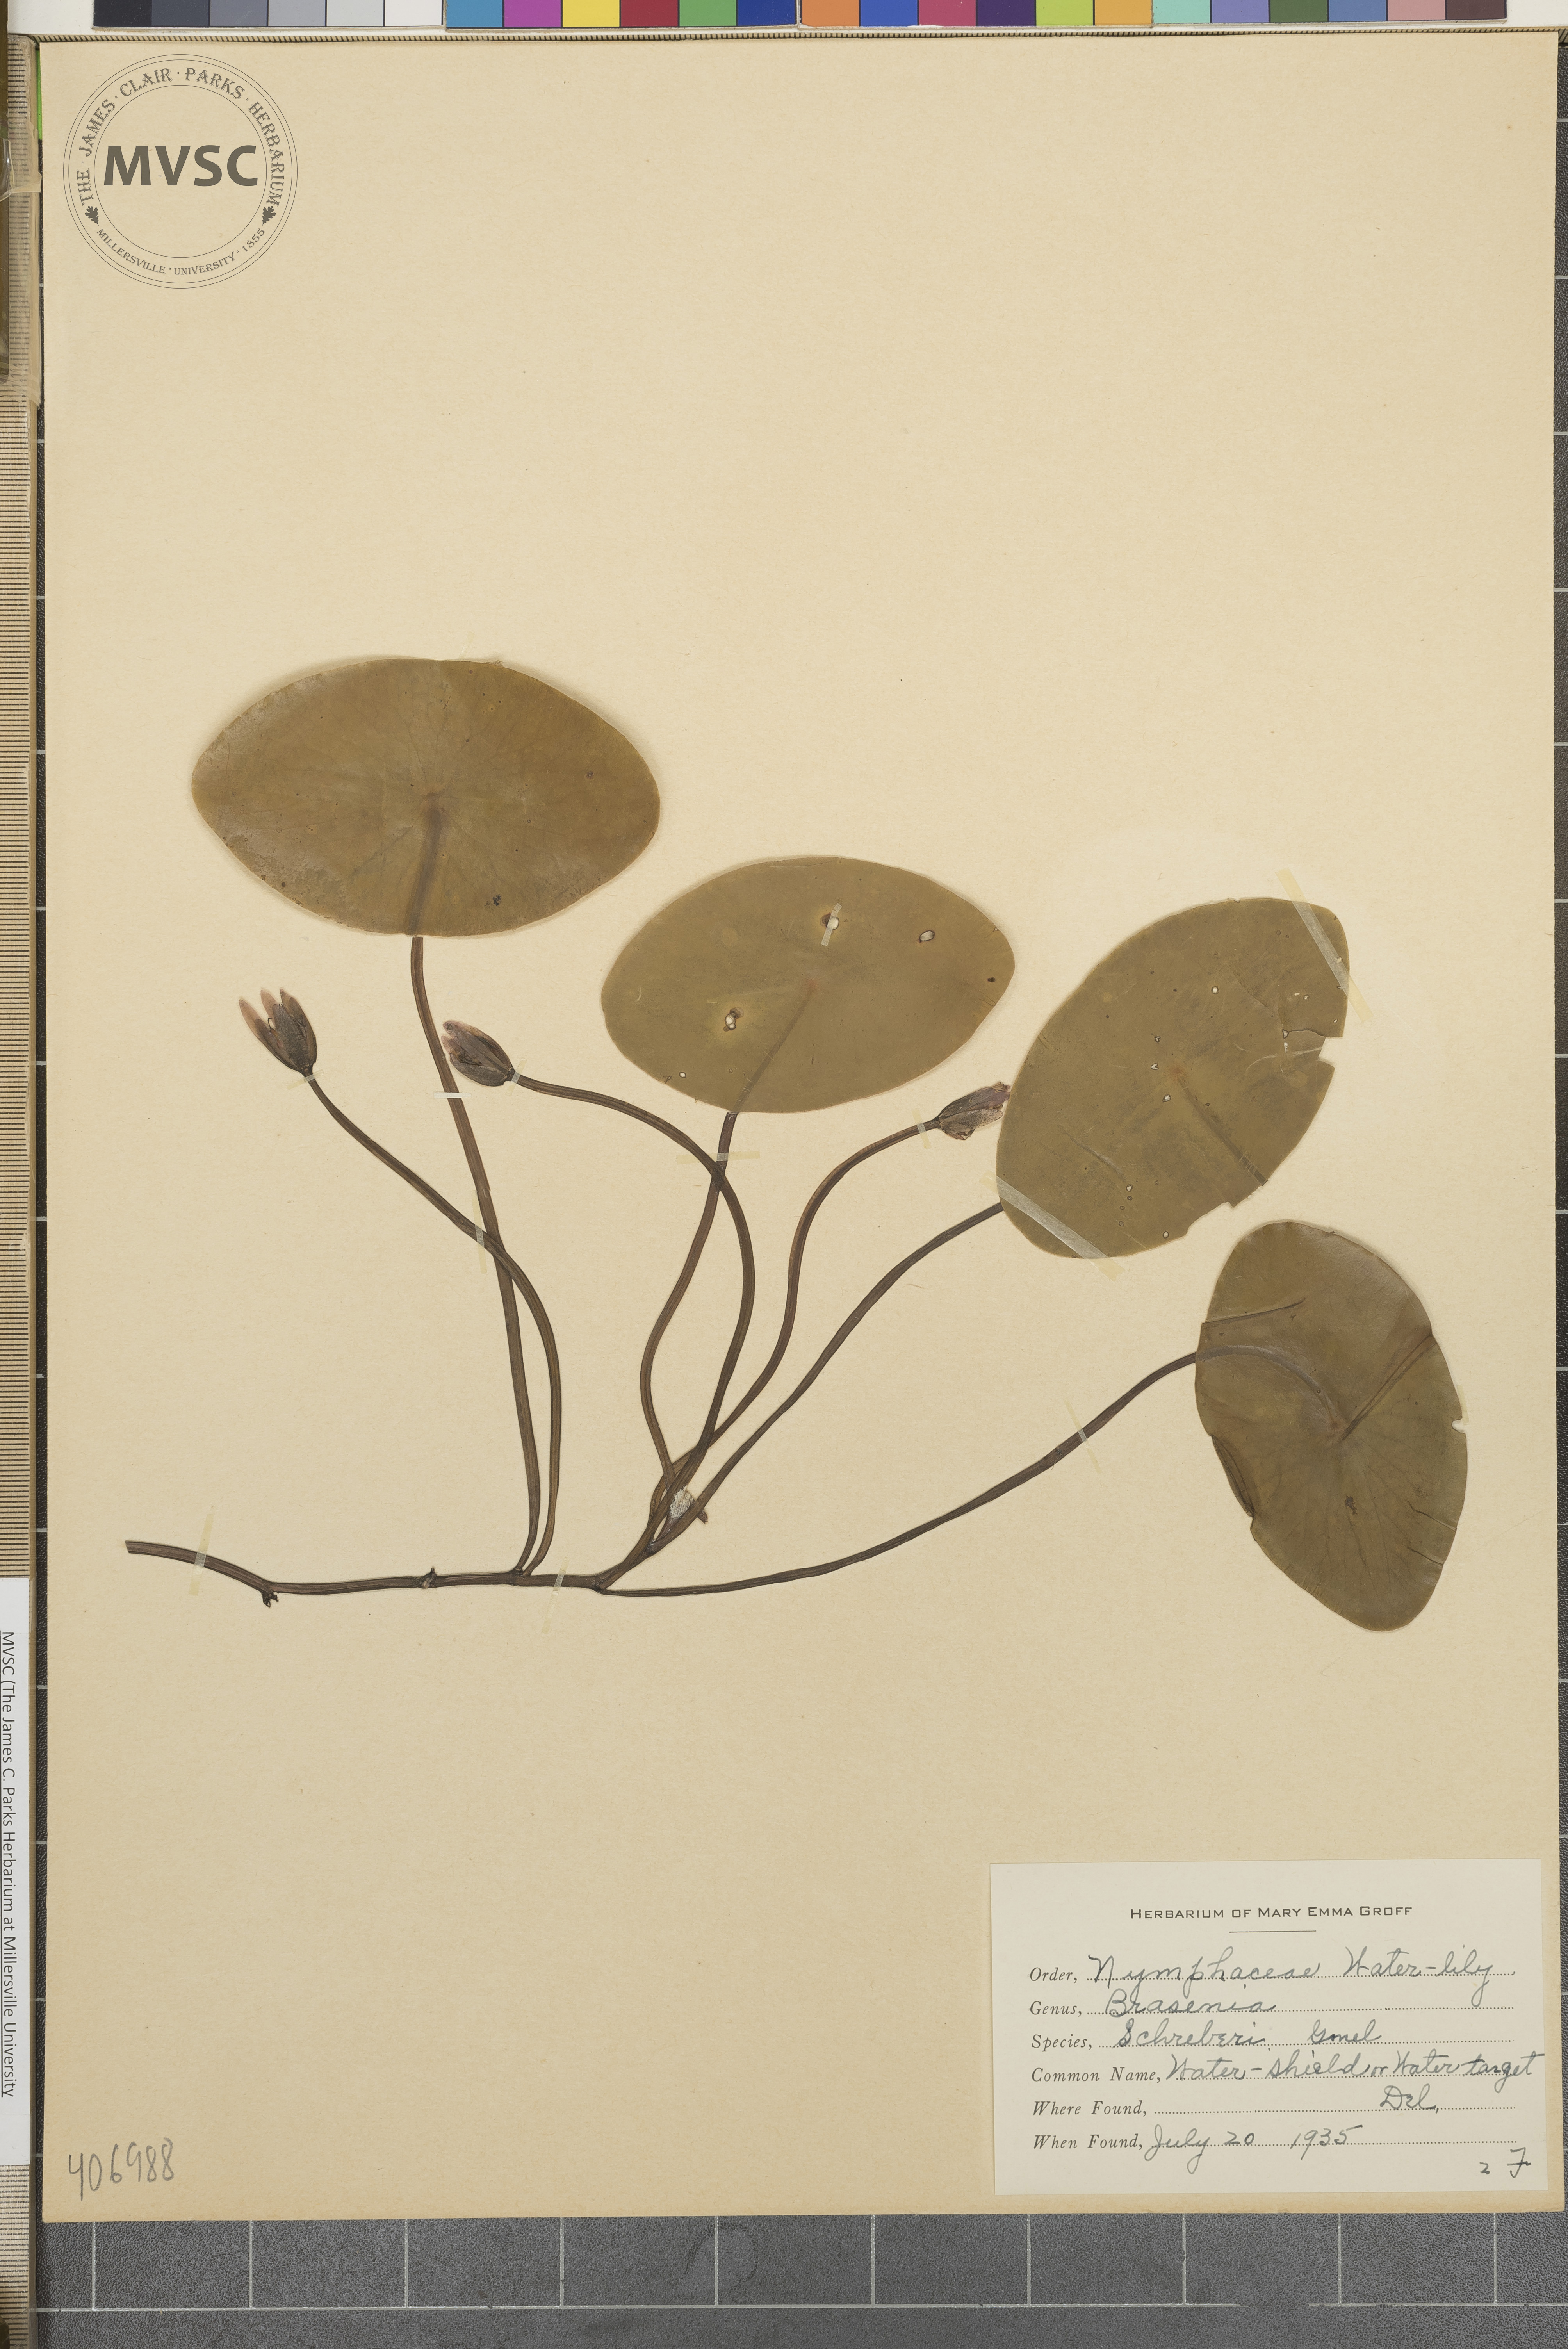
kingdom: Plantae
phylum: Tracheophyta
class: Magnoliopsida
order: Nymphaeales
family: Cabombaceae
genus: Brasenia
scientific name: Brasenia schreberi
